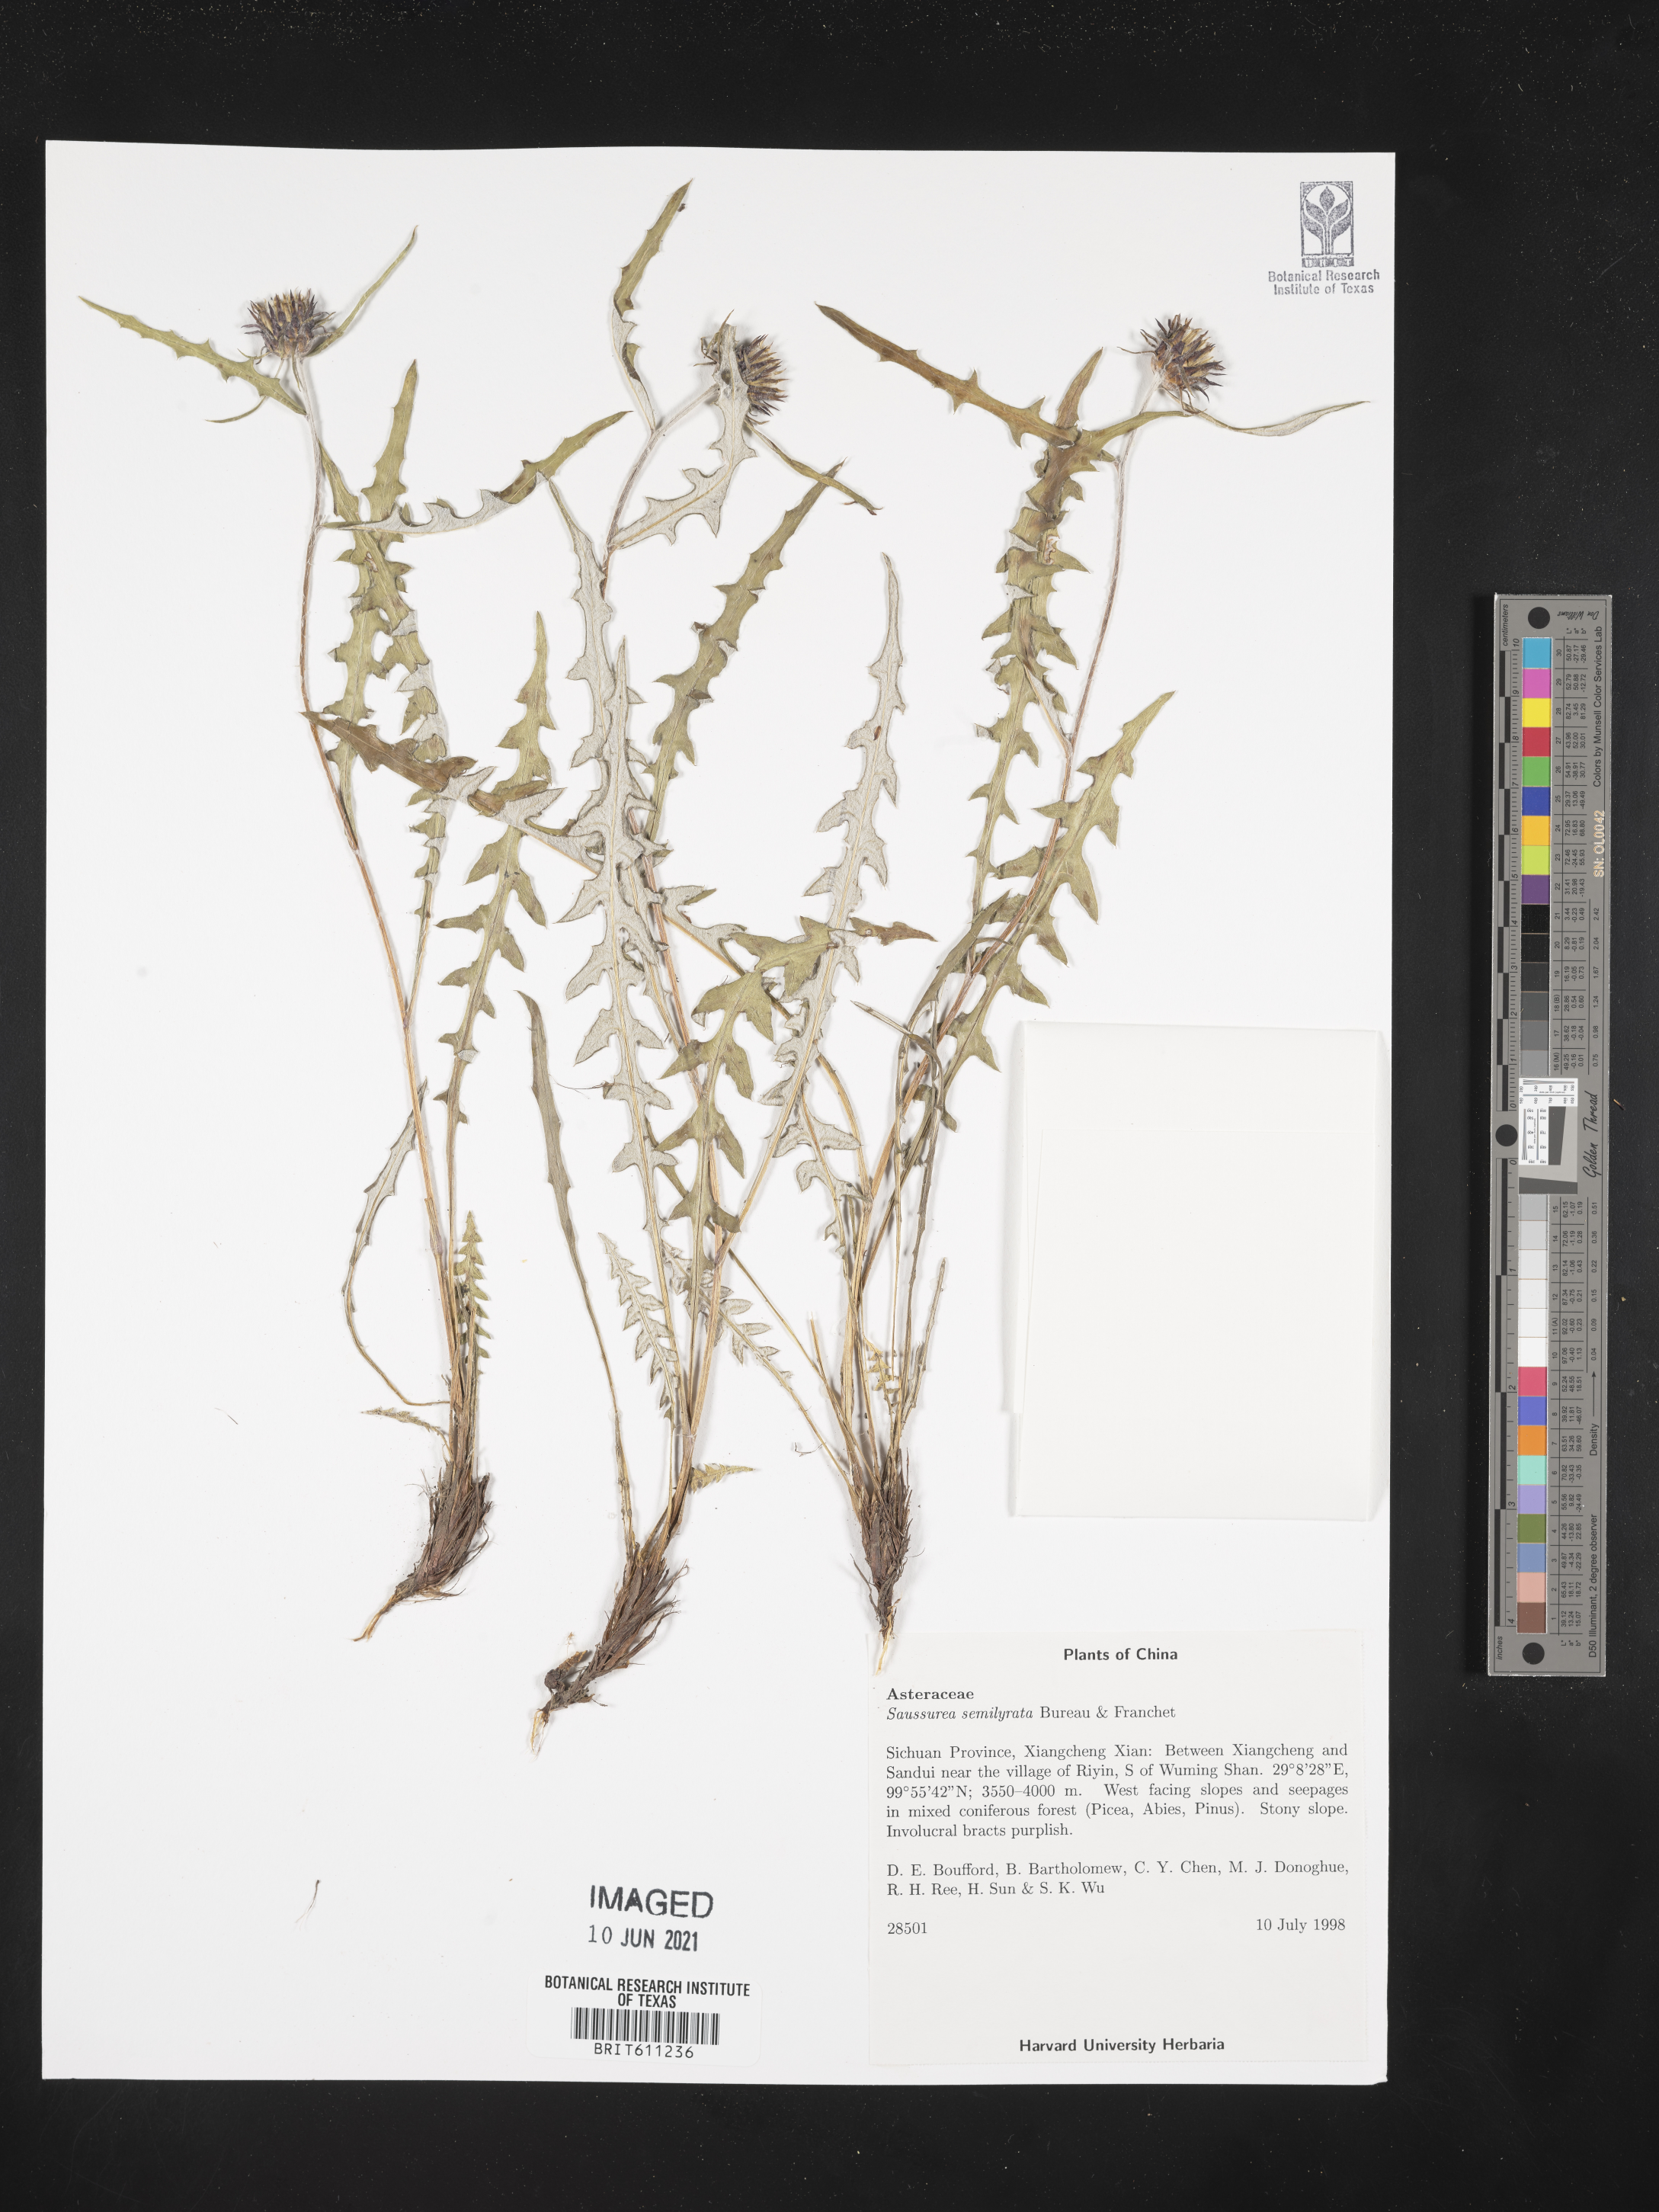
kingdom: Plantae
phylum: Tracheophyta
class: Magnoliopsida
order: Asterales
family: Asteraceae
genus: Saussurea
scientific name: Saussurea semilyrata
